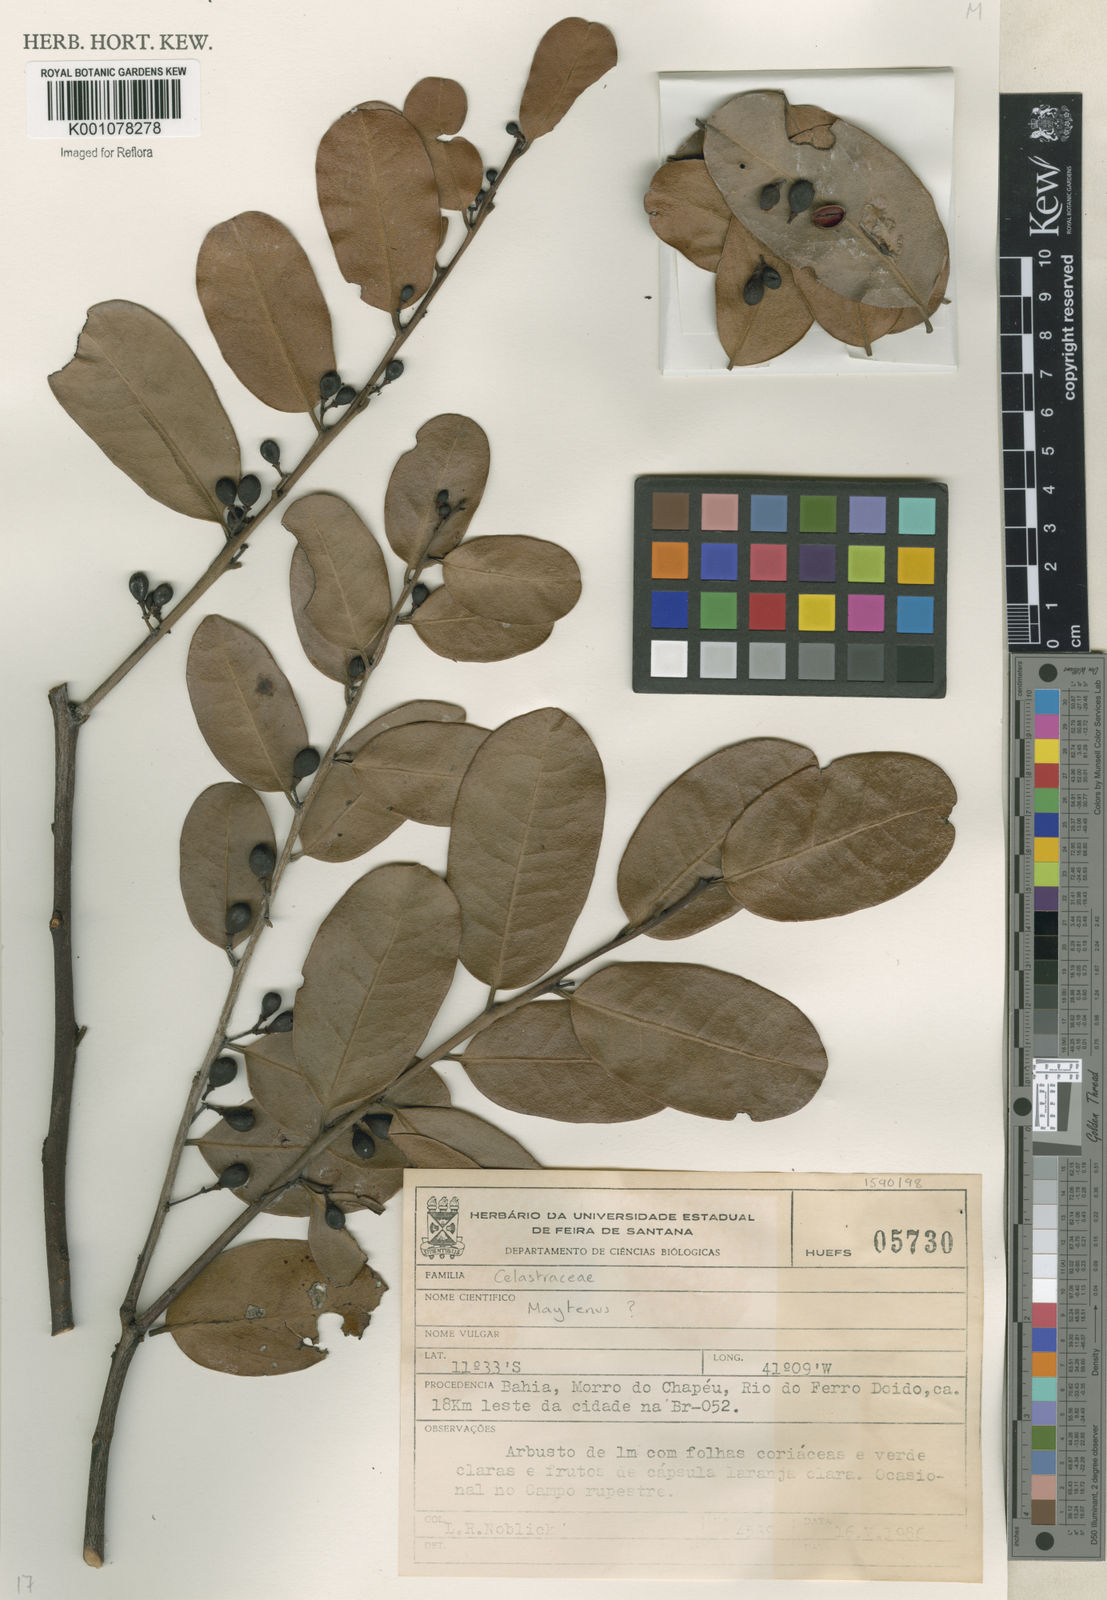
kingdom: Plantae
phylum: Tracheophyta
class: Magnoliopsida
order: Celastrales
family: Celastraceae
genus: Maytenus
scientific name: Maytenus
